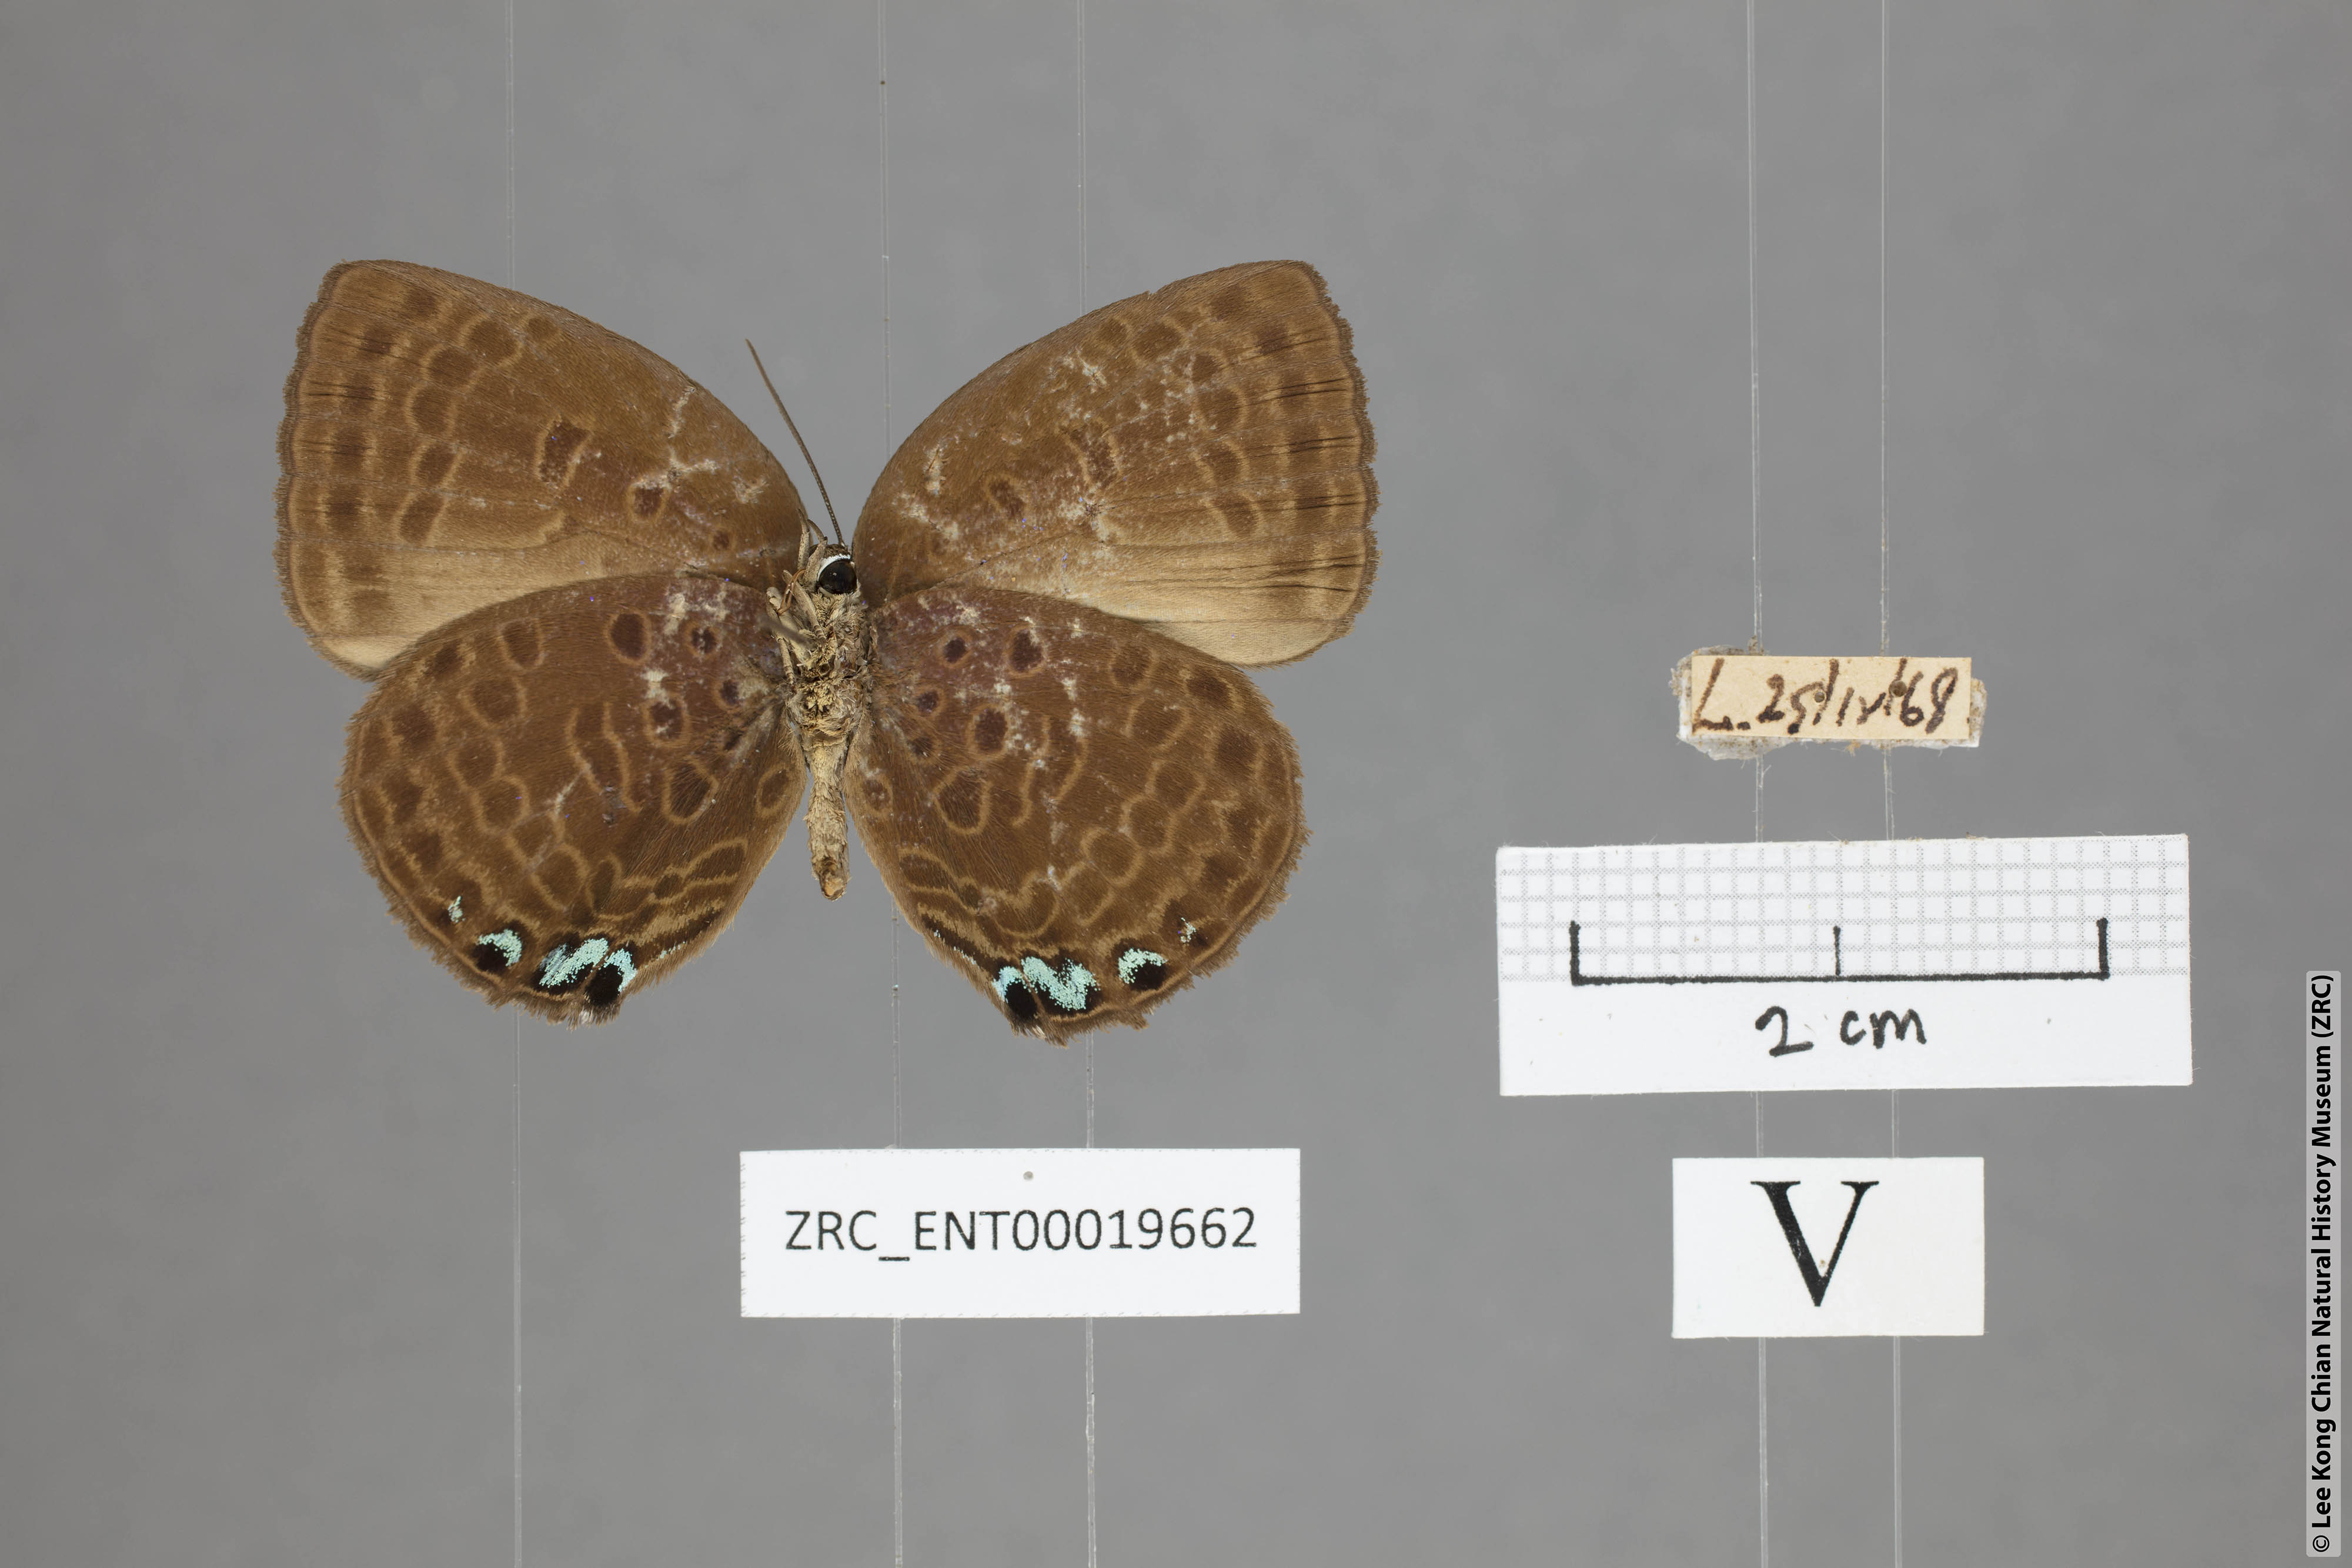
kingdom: Animalia
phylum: Arthropoda
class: Insecta
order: Lepidoptera
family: Lycaenidae
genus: Arhopala
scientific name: Arhopala moolaina
